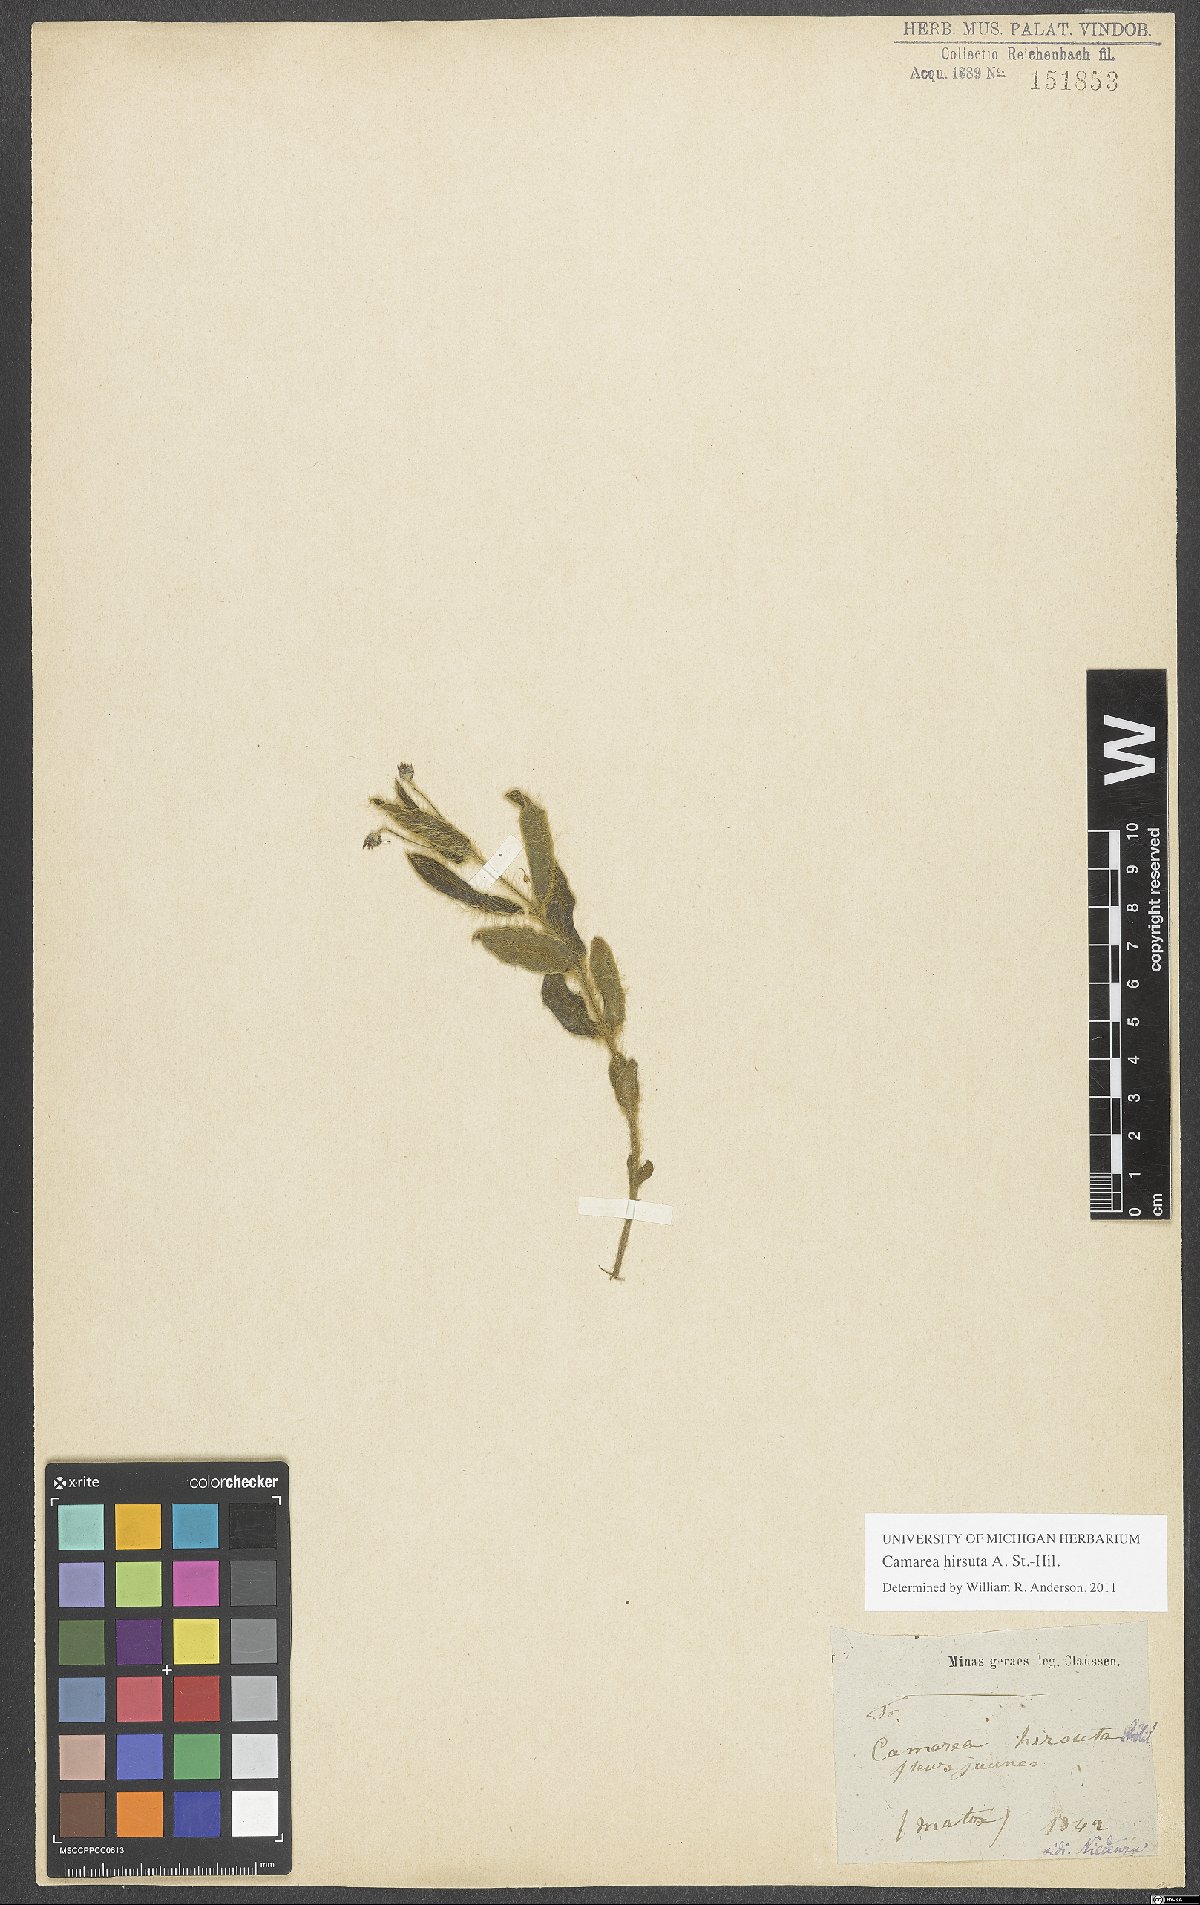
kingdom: Plantae
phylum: Tracheophyta
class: Magnoliopsida
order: Malpighiales
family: Malpighiaceae
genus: Camarea
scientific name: Camarea hirsuta
